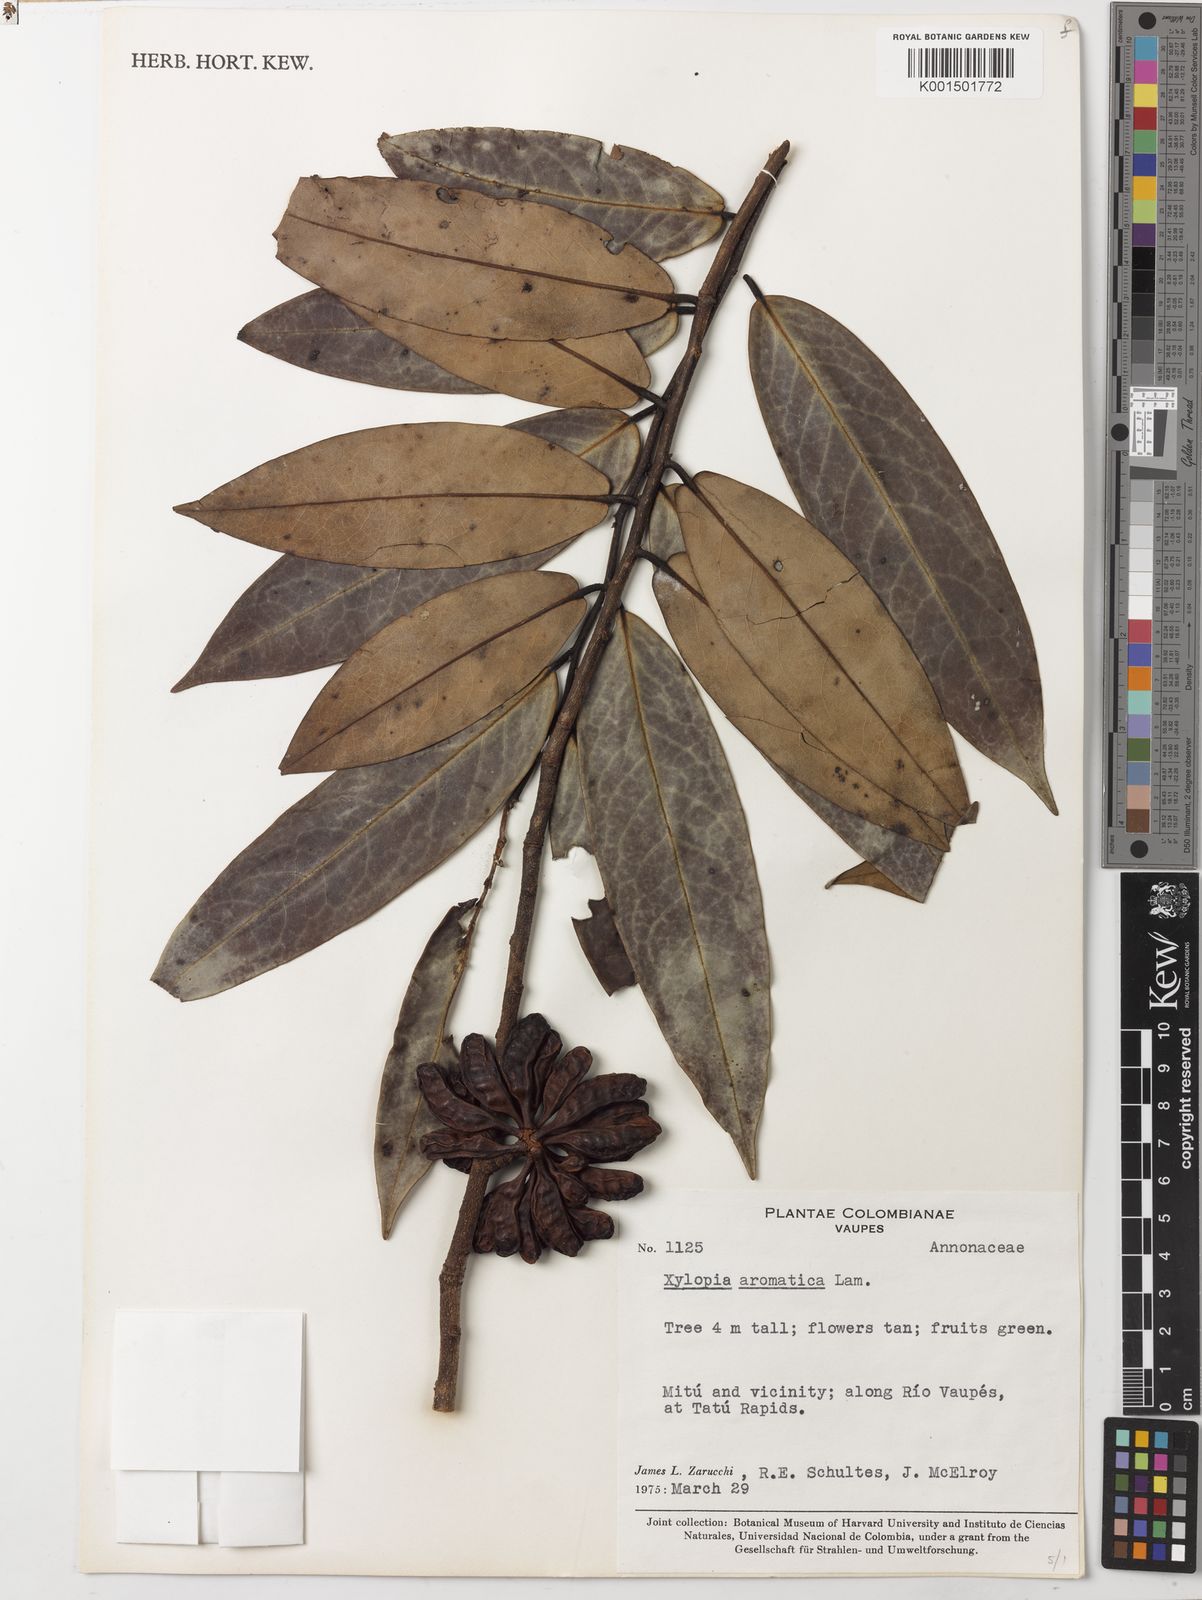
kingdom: Plantae
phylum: Tracheophyta
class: Magnoliopsida
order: Magnoliales
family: Annonaceae
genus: Xylopia
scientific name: Xylopia aromatica
